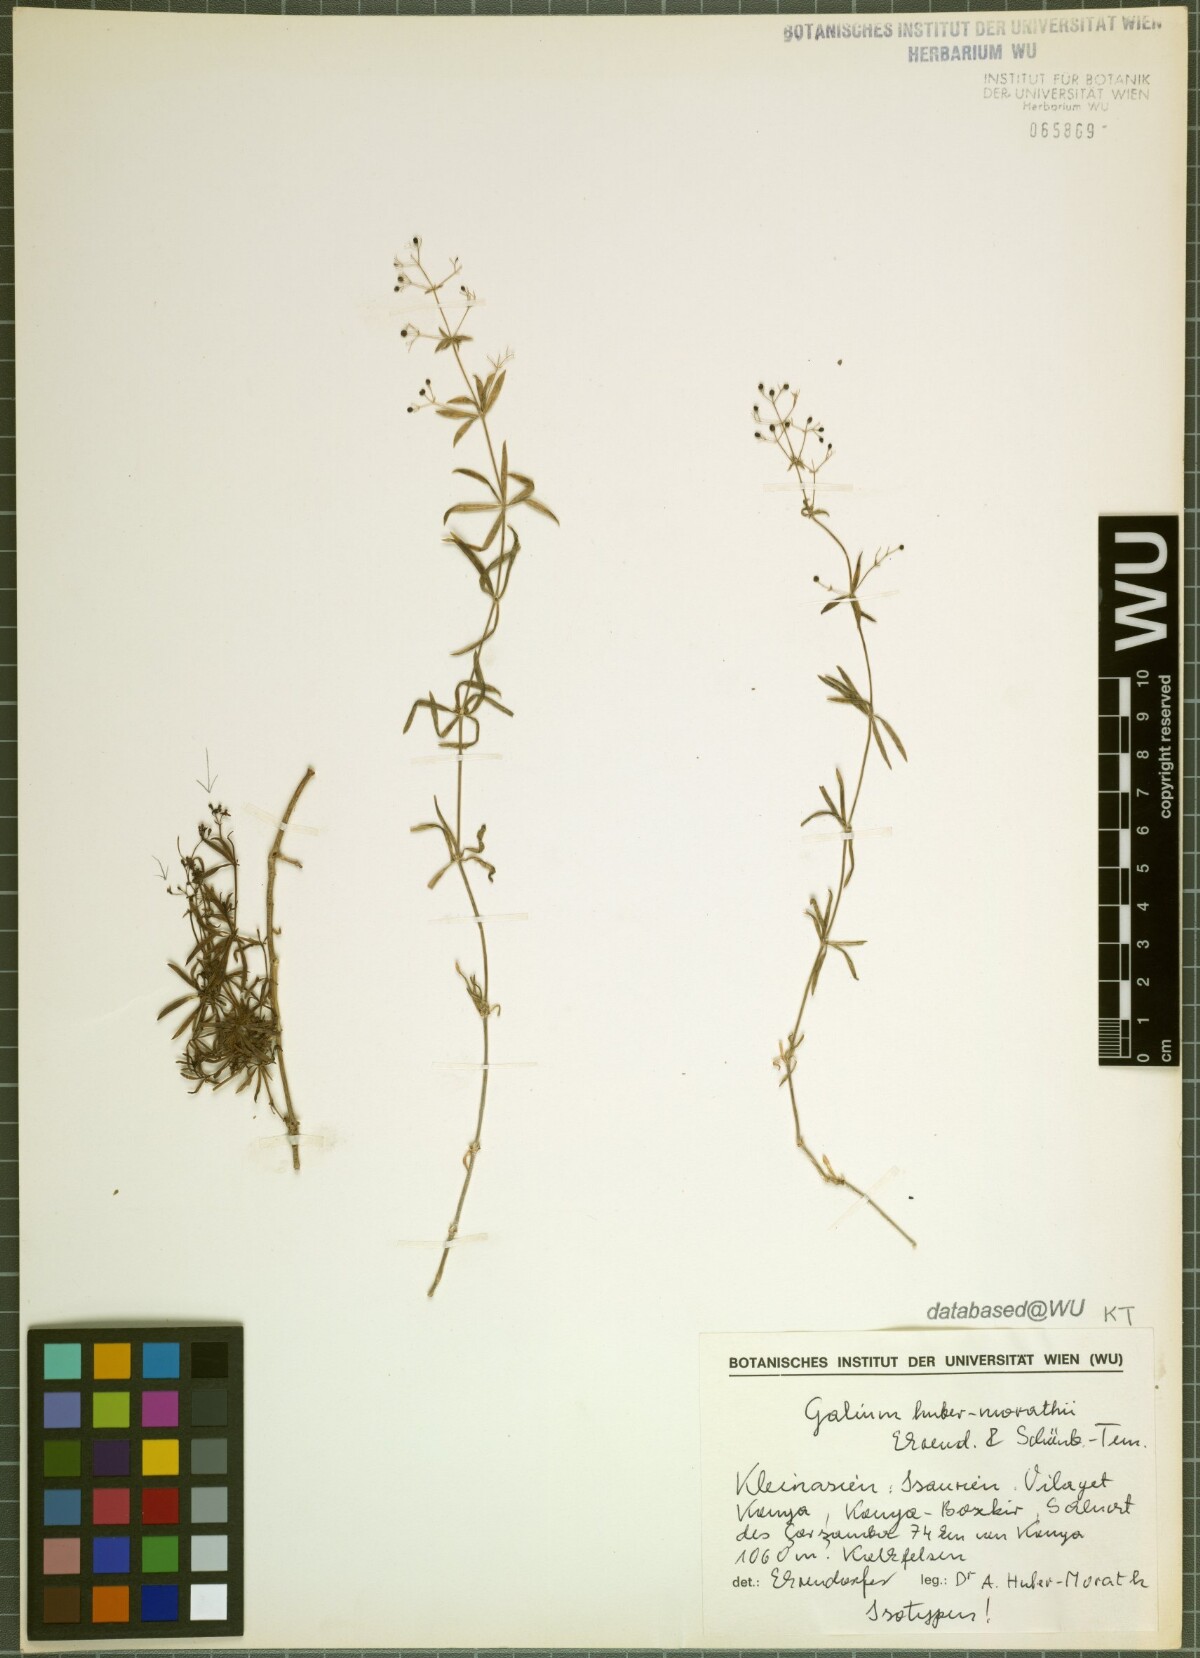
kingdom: Plantae
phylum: Tracheophyta
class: Magnoliopsida
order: Gentianales
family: Rubiaceae
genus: Galium
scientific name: Galium huber-morathii
